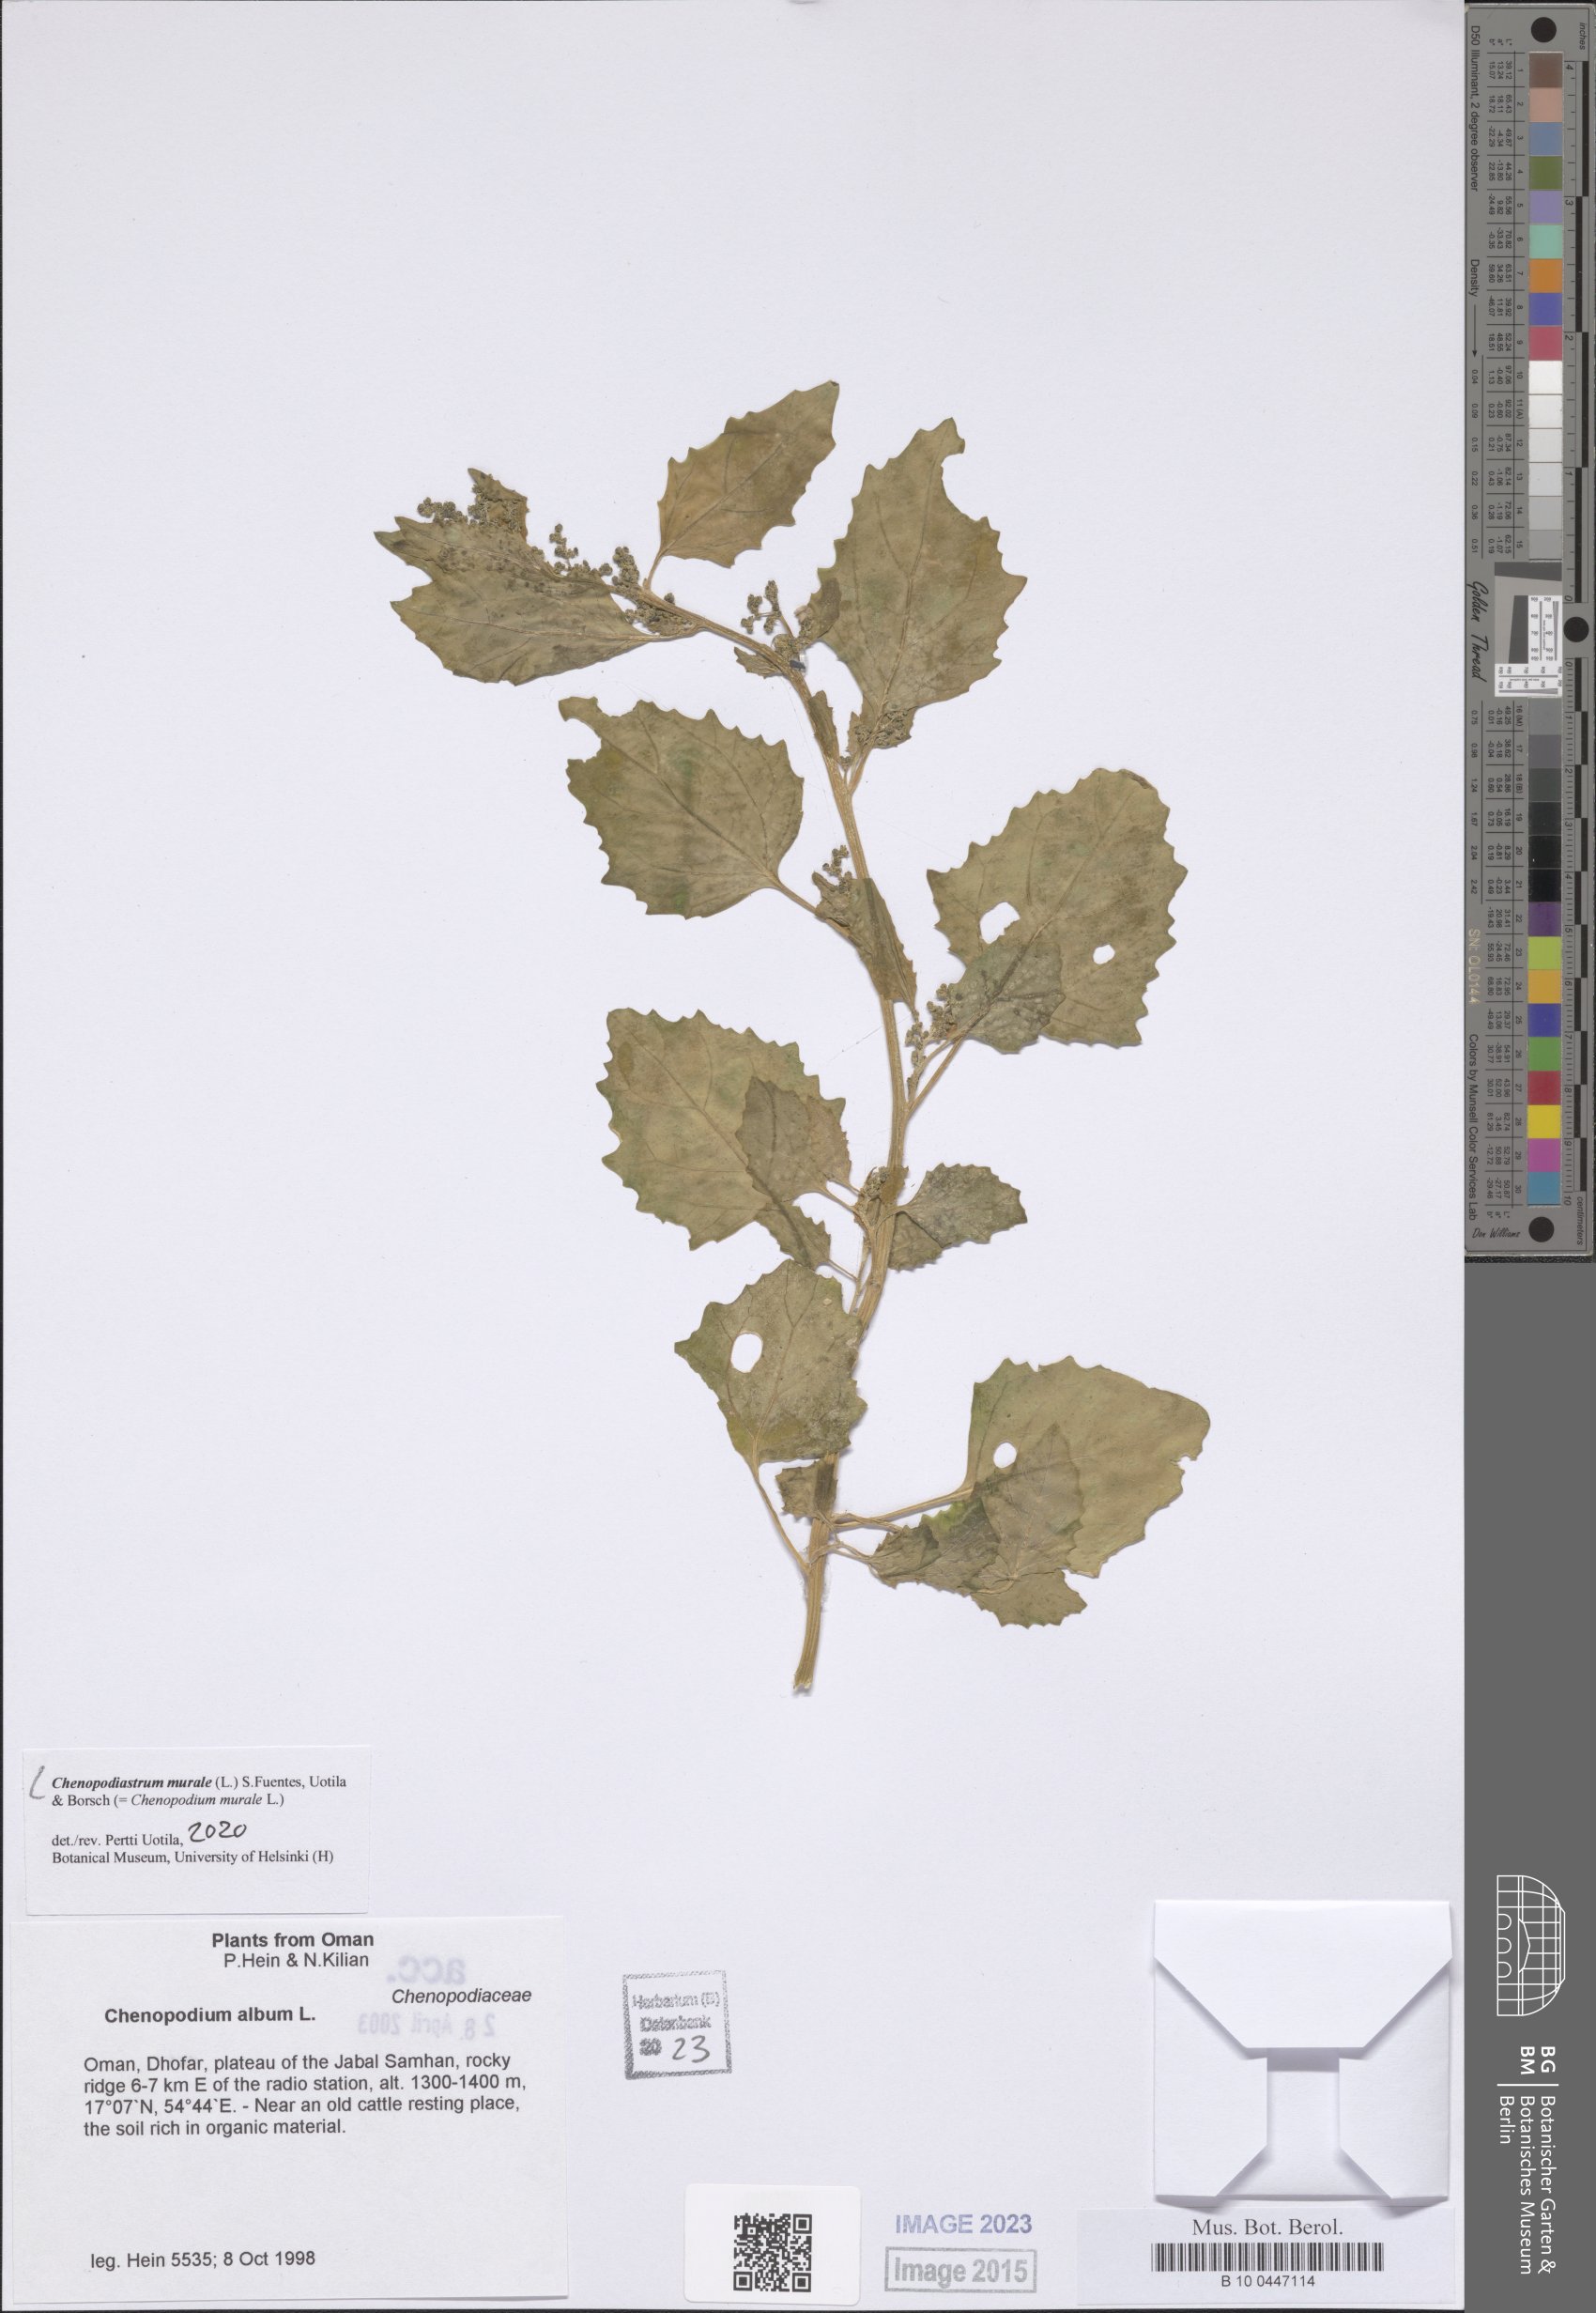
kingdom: Plantae
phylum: Tracheophyta
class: Magnoliopsida
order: Caryophyllales
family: Amaranthaceae
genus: Chenopodiastrum
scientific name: Chenopodiastrum murale
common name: Sowbane
